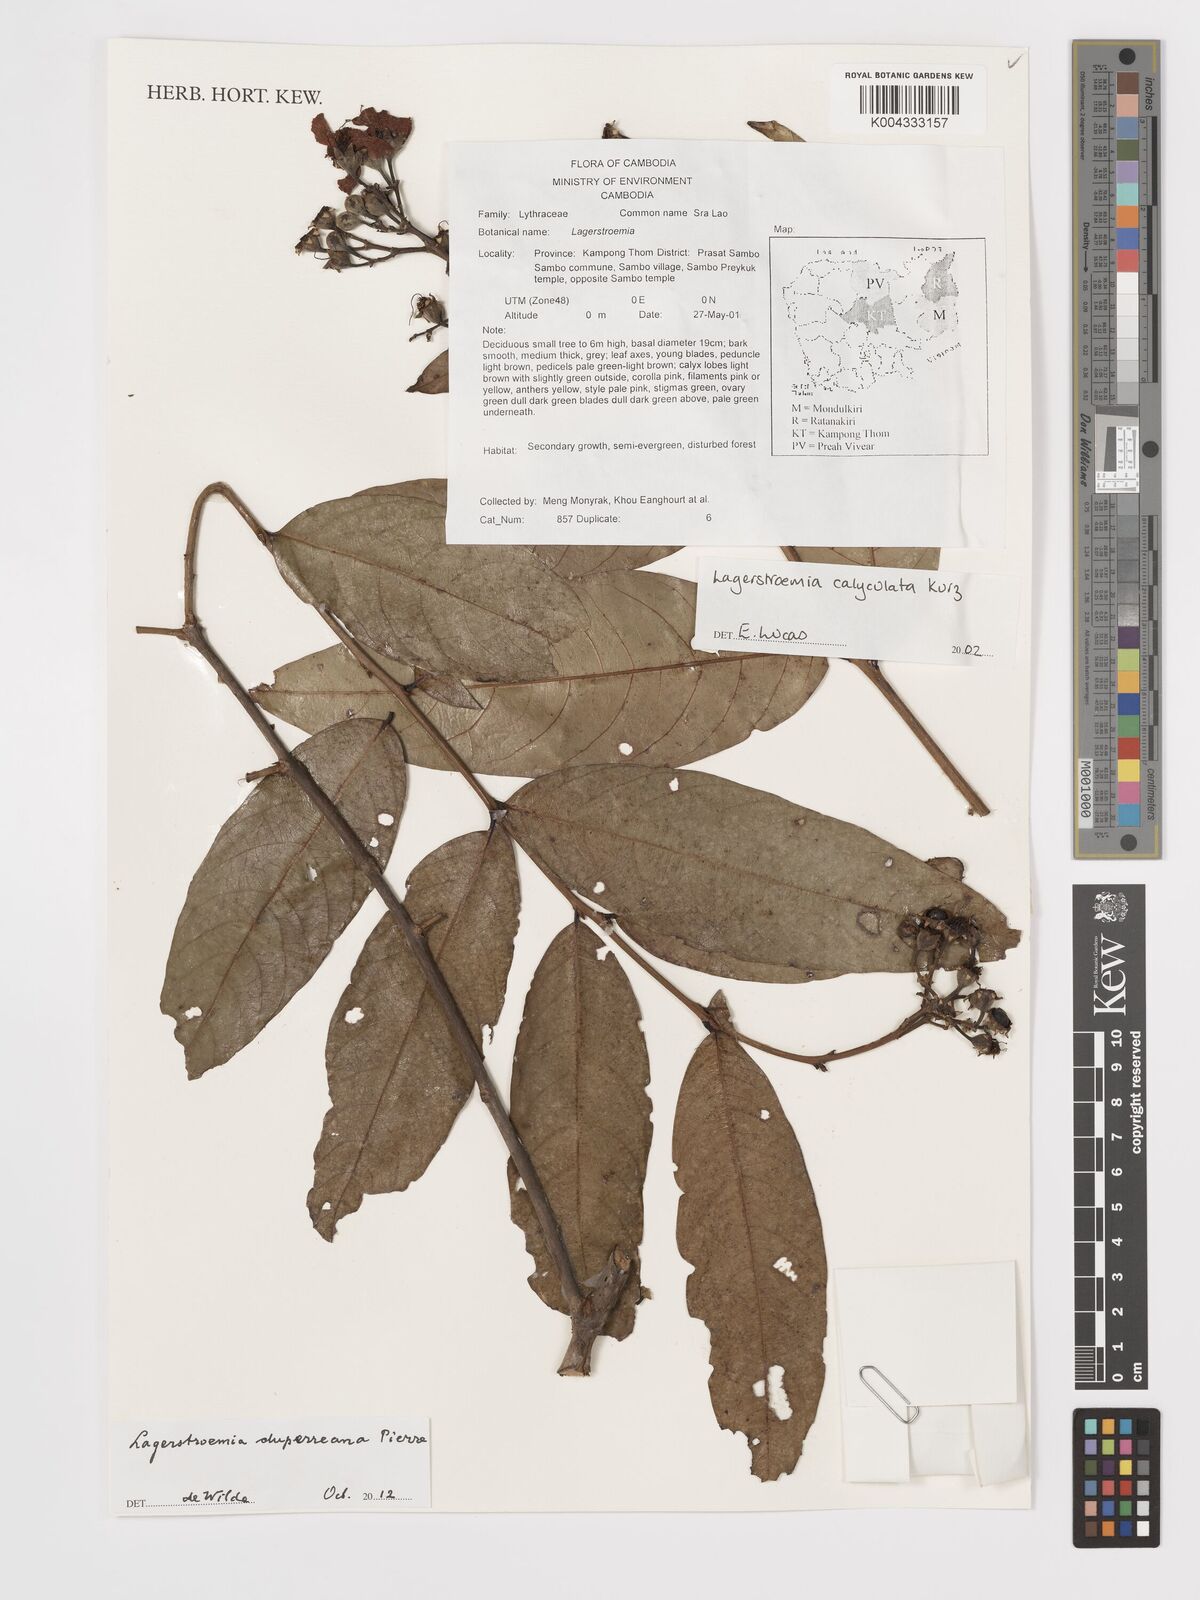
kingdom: Plantae
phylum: Tracheophyta
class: Magnoliopsida
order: Myrtales
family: Lythraceae
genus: Lagerstroemia
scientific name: Lagerstroemia duperreana
